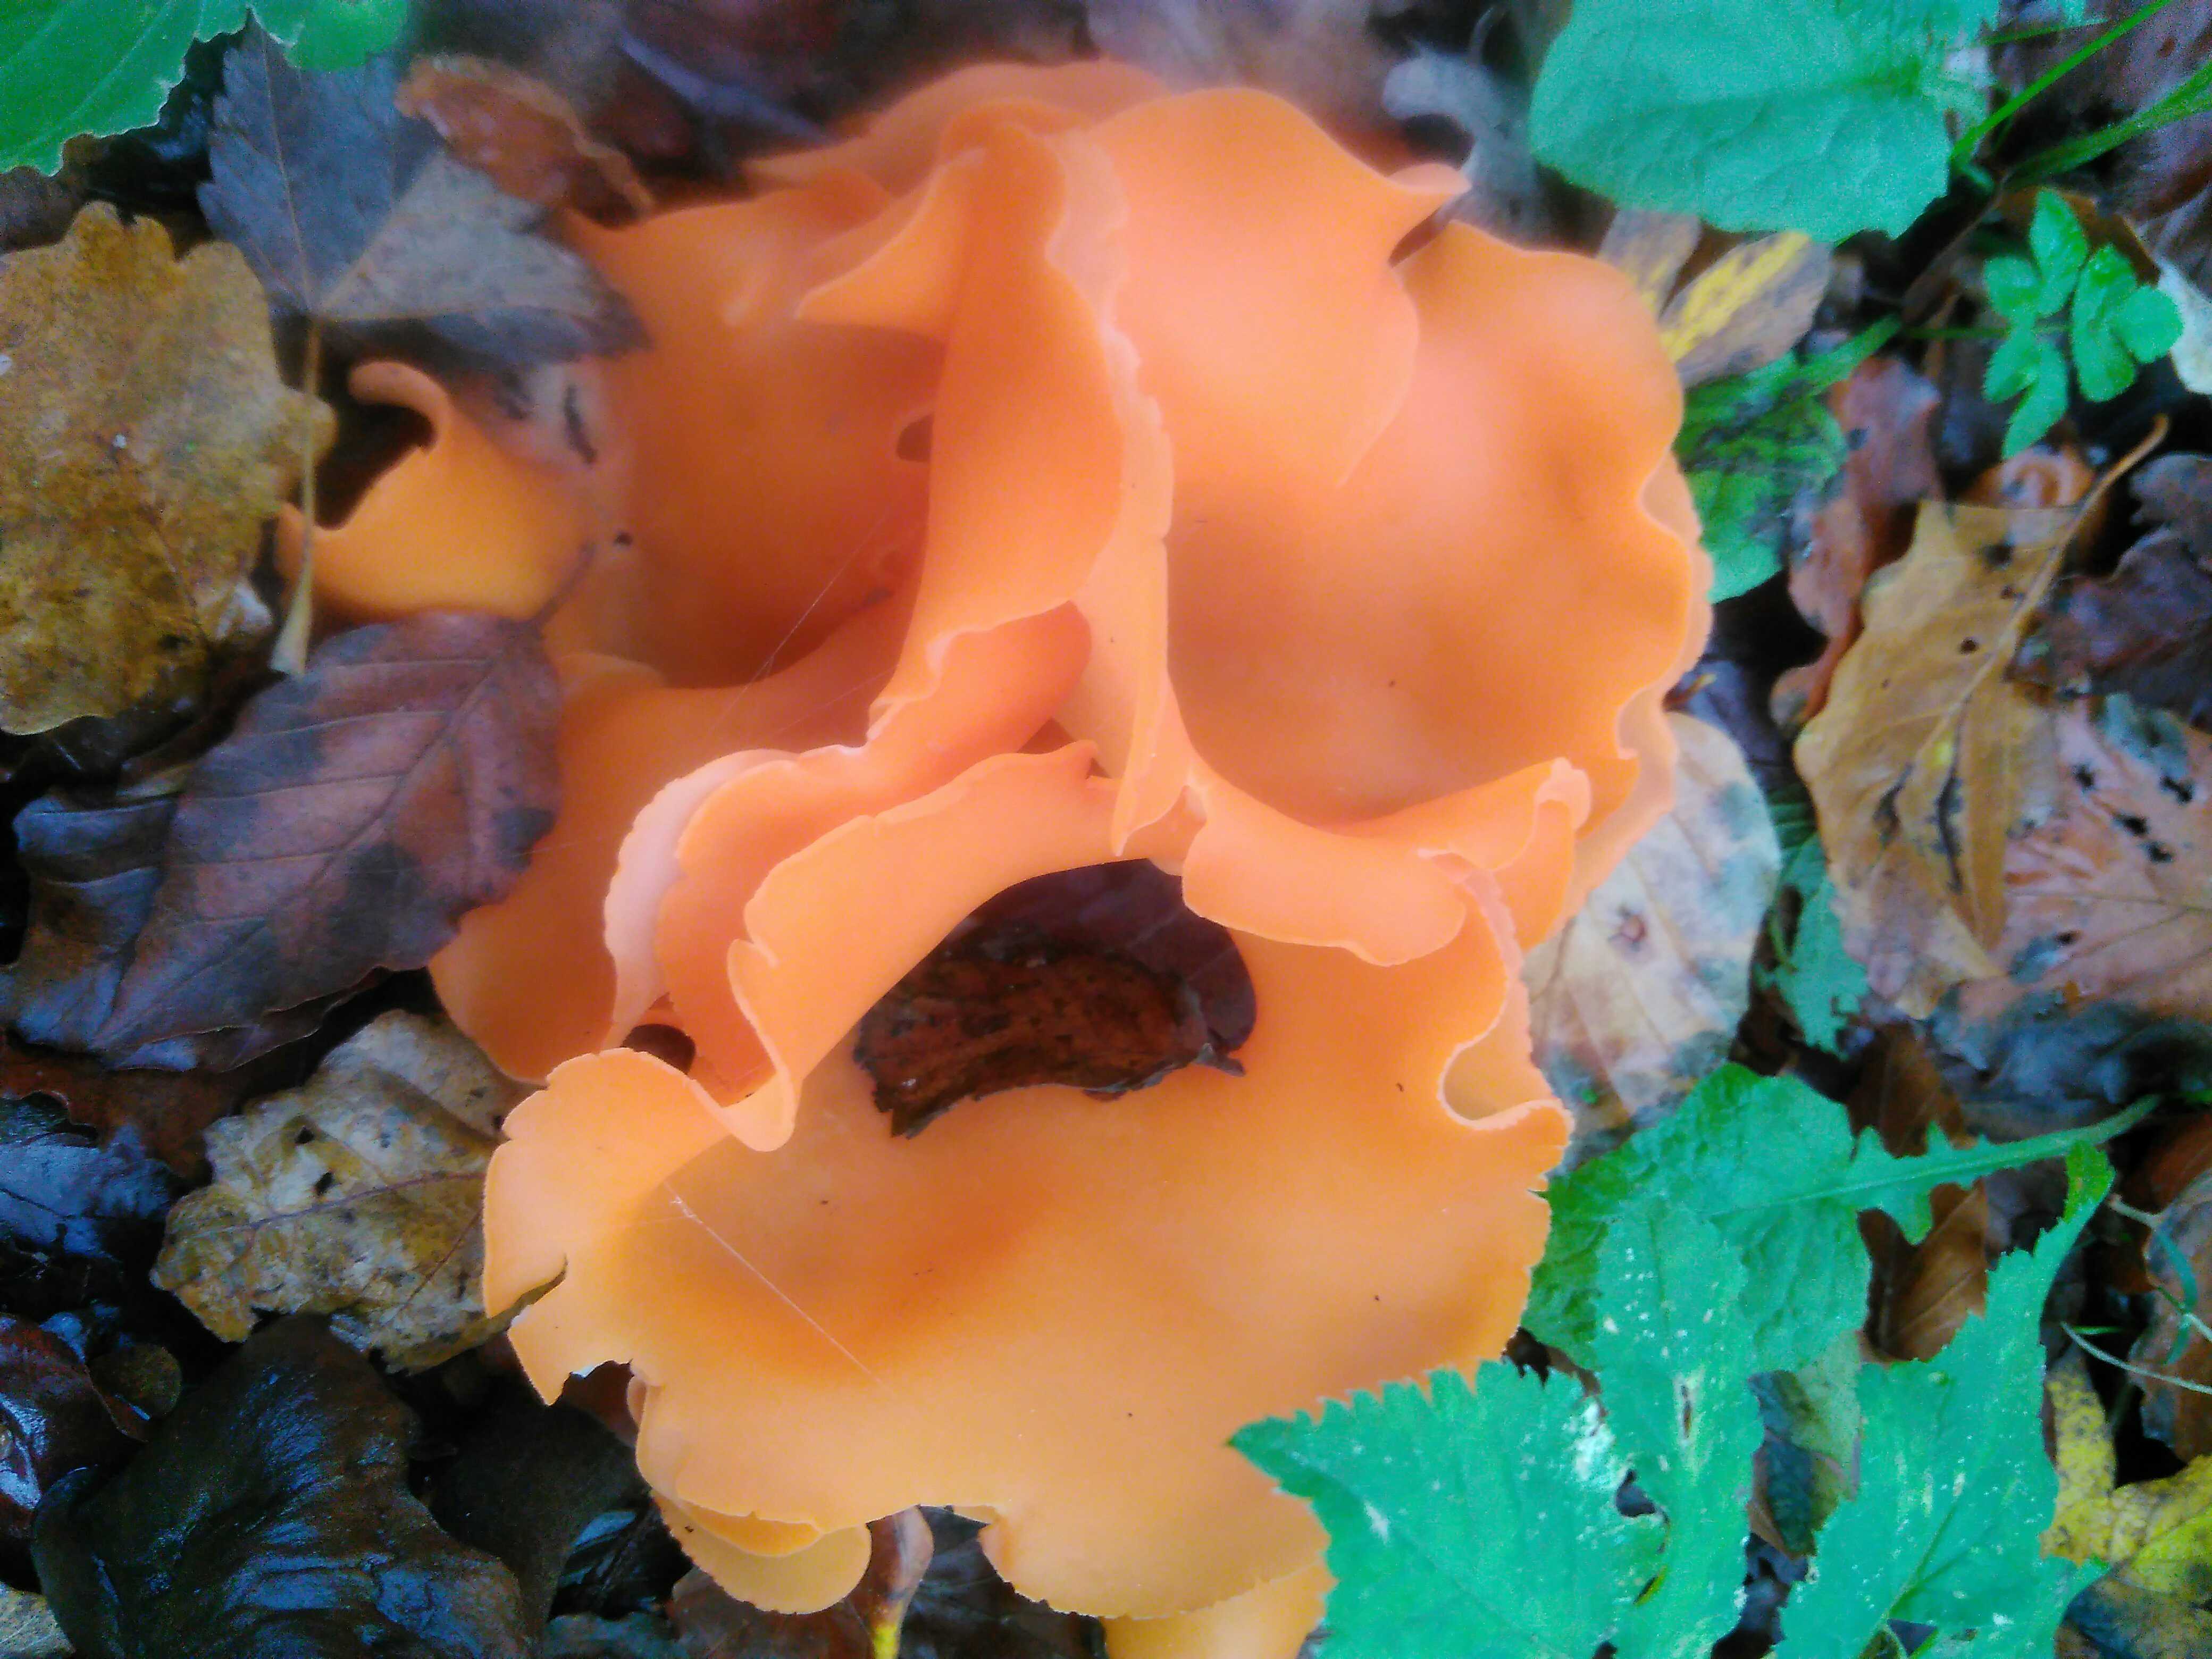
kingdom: Fungi
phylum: Ascomycota
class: Pezizomycetes
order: Pezizales
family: Pyronemataceae
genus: Aleuria
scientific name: Aleuria aurantia
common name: almindelig orangebæger
